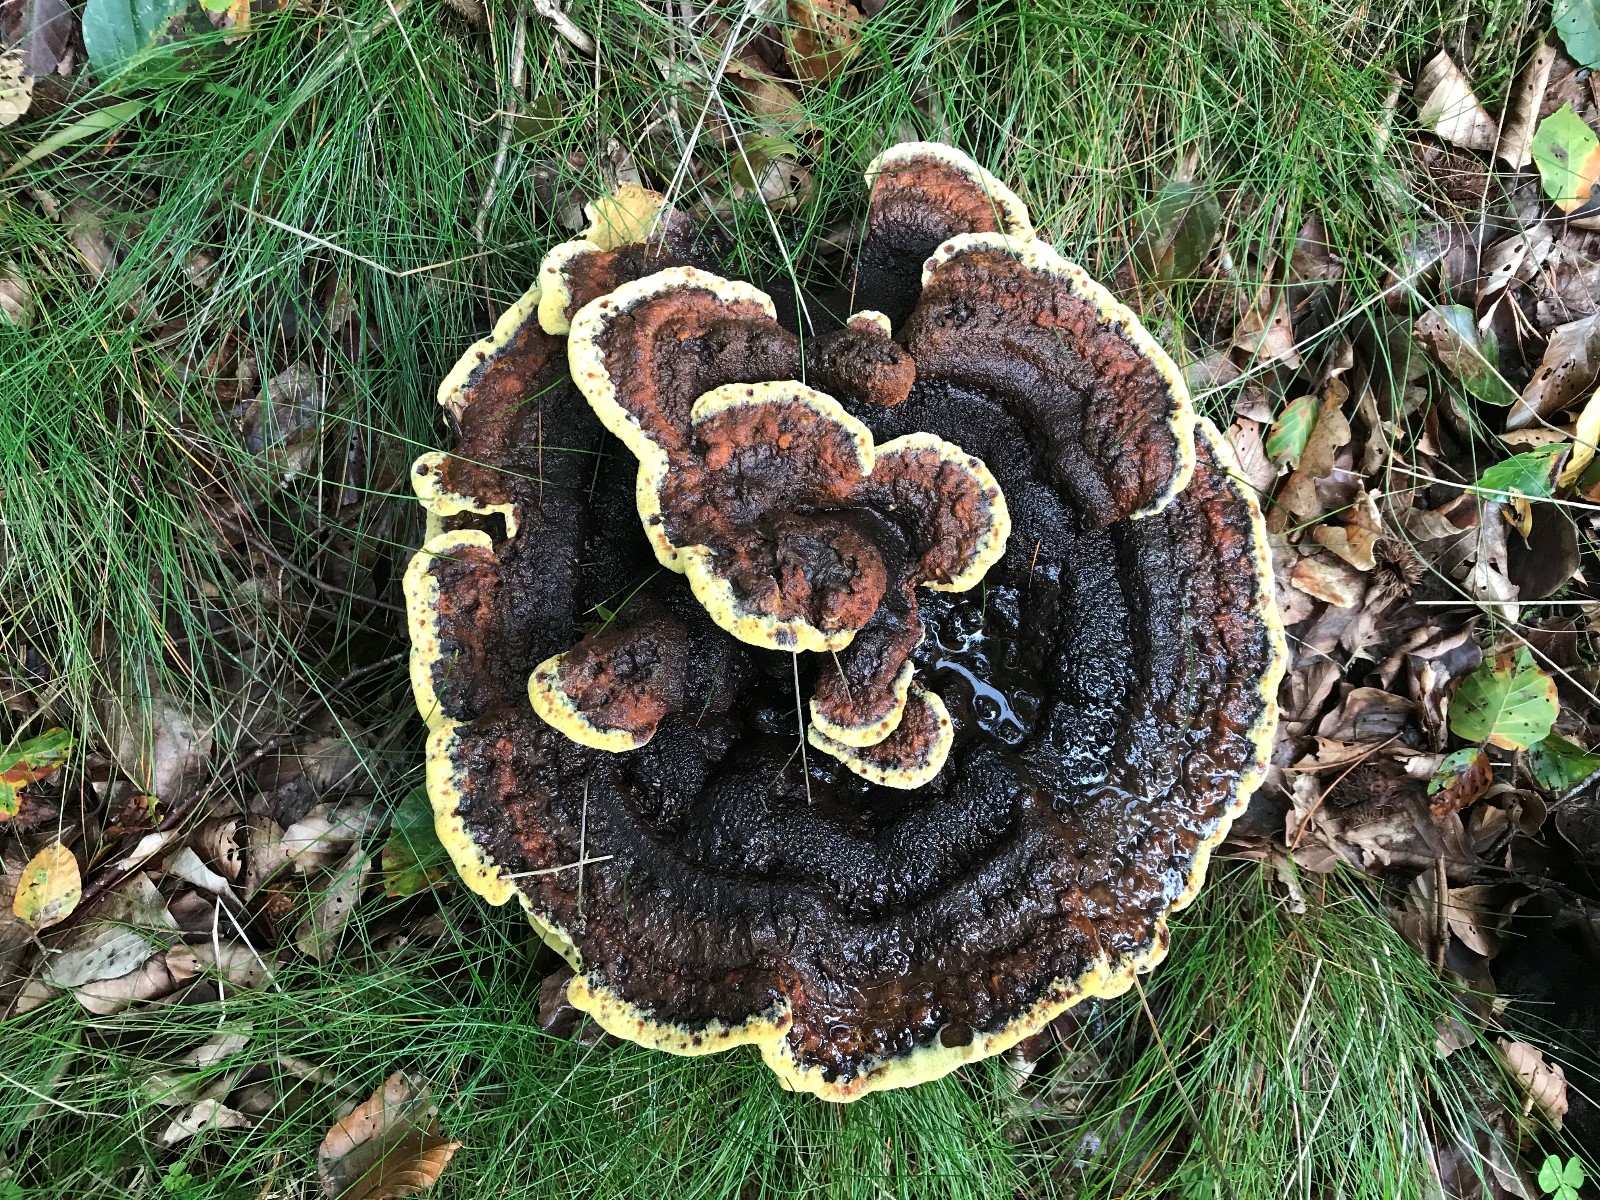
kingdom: Fungi
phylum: Basidiomycota
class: Agaricomycetes
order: Polyporales
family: Laetiporaceae
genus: Phaeolus
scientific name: Phaeolus schweinitzii
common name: brunporesvamp
